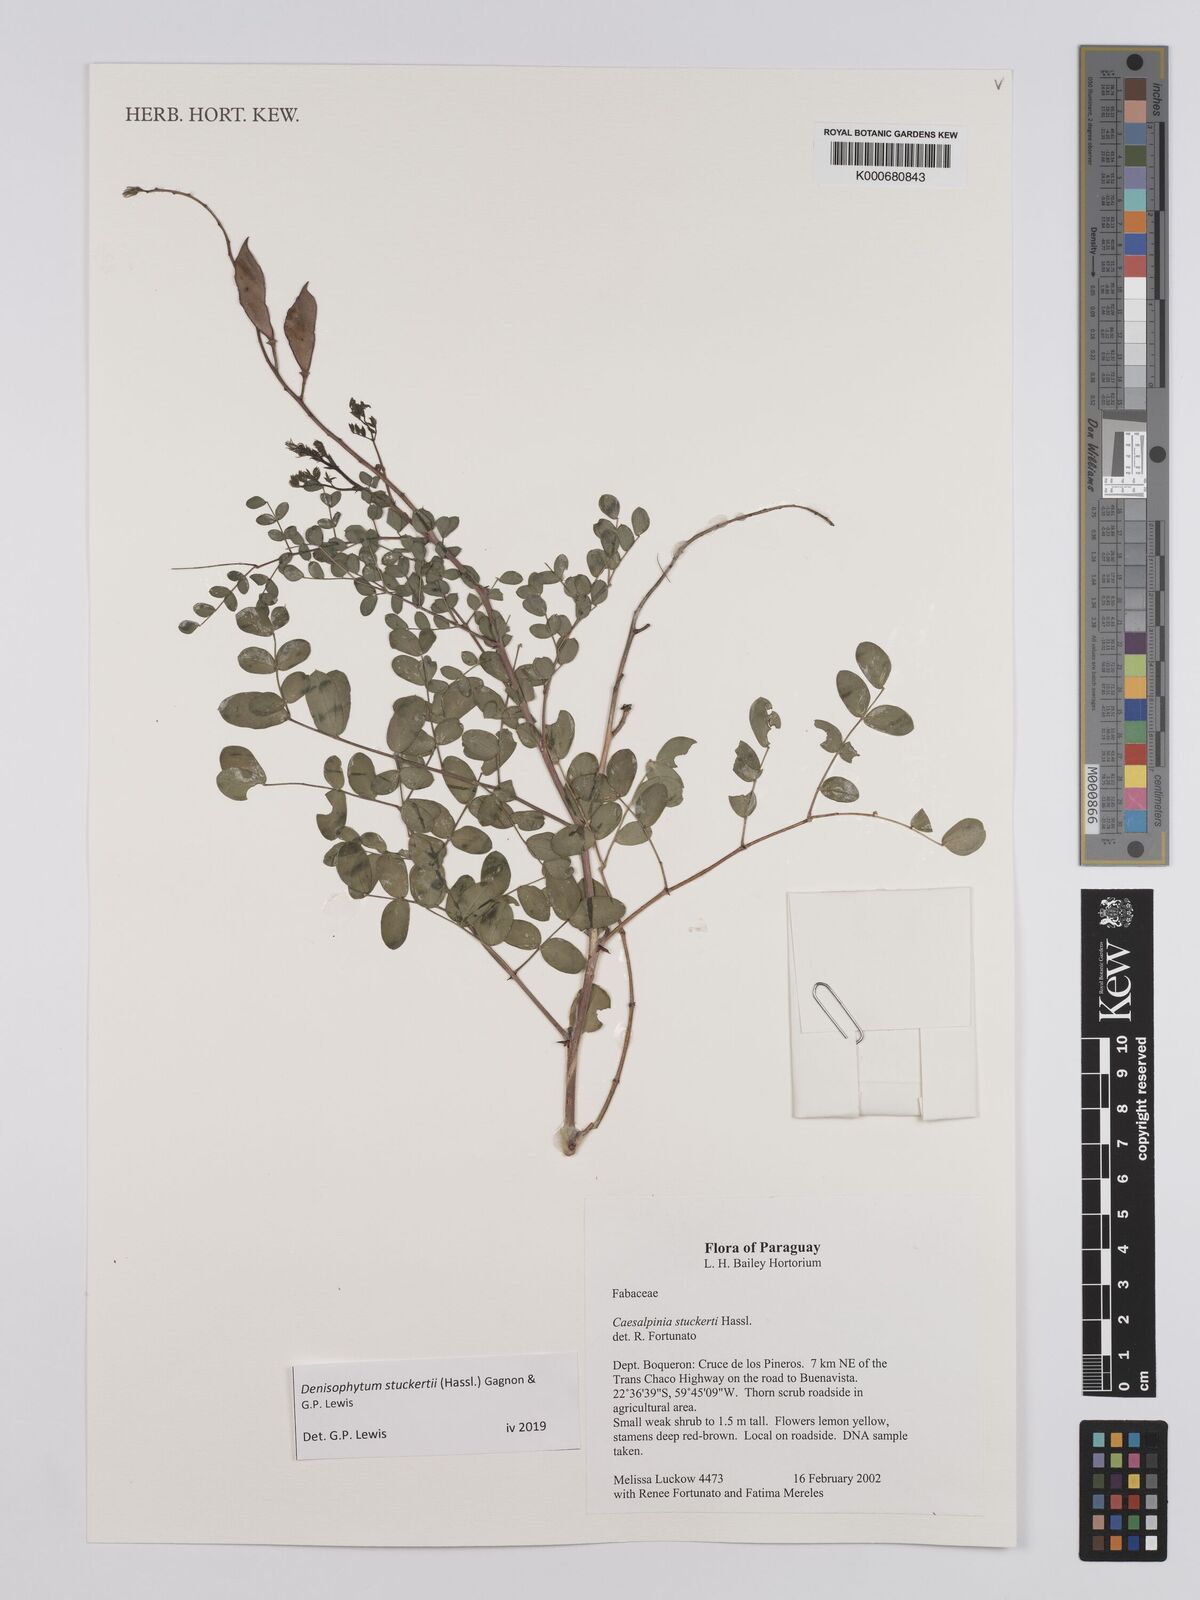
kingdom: Plantae
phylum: Tracheophyta
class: Magnoliopsida
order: Fabales
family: Fabaceae
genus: Denisophytum
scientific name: Denisophytum stuckertii
